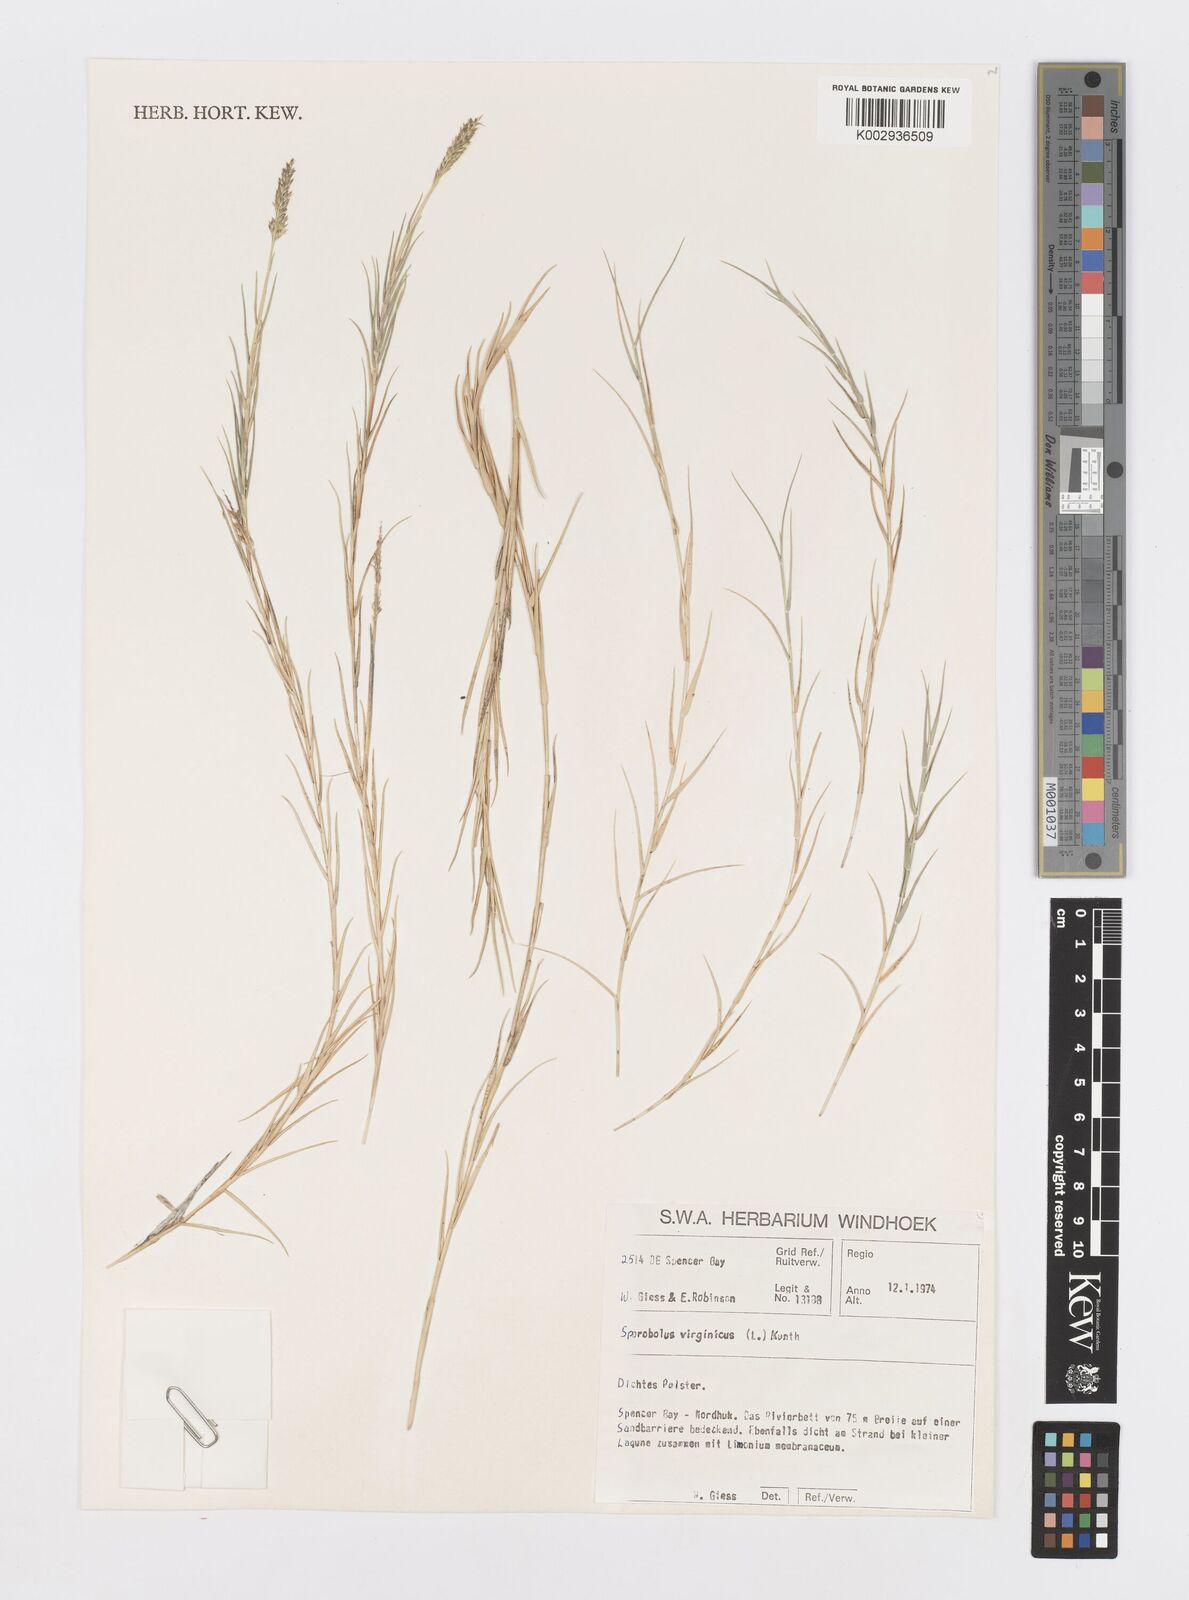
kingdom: Plantae
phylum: Tracheophyta
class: Liliopsida
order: Poales
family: Poaceae
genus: Sporobolus
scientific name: Sporobolus virginicus
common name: Beach dropseed
